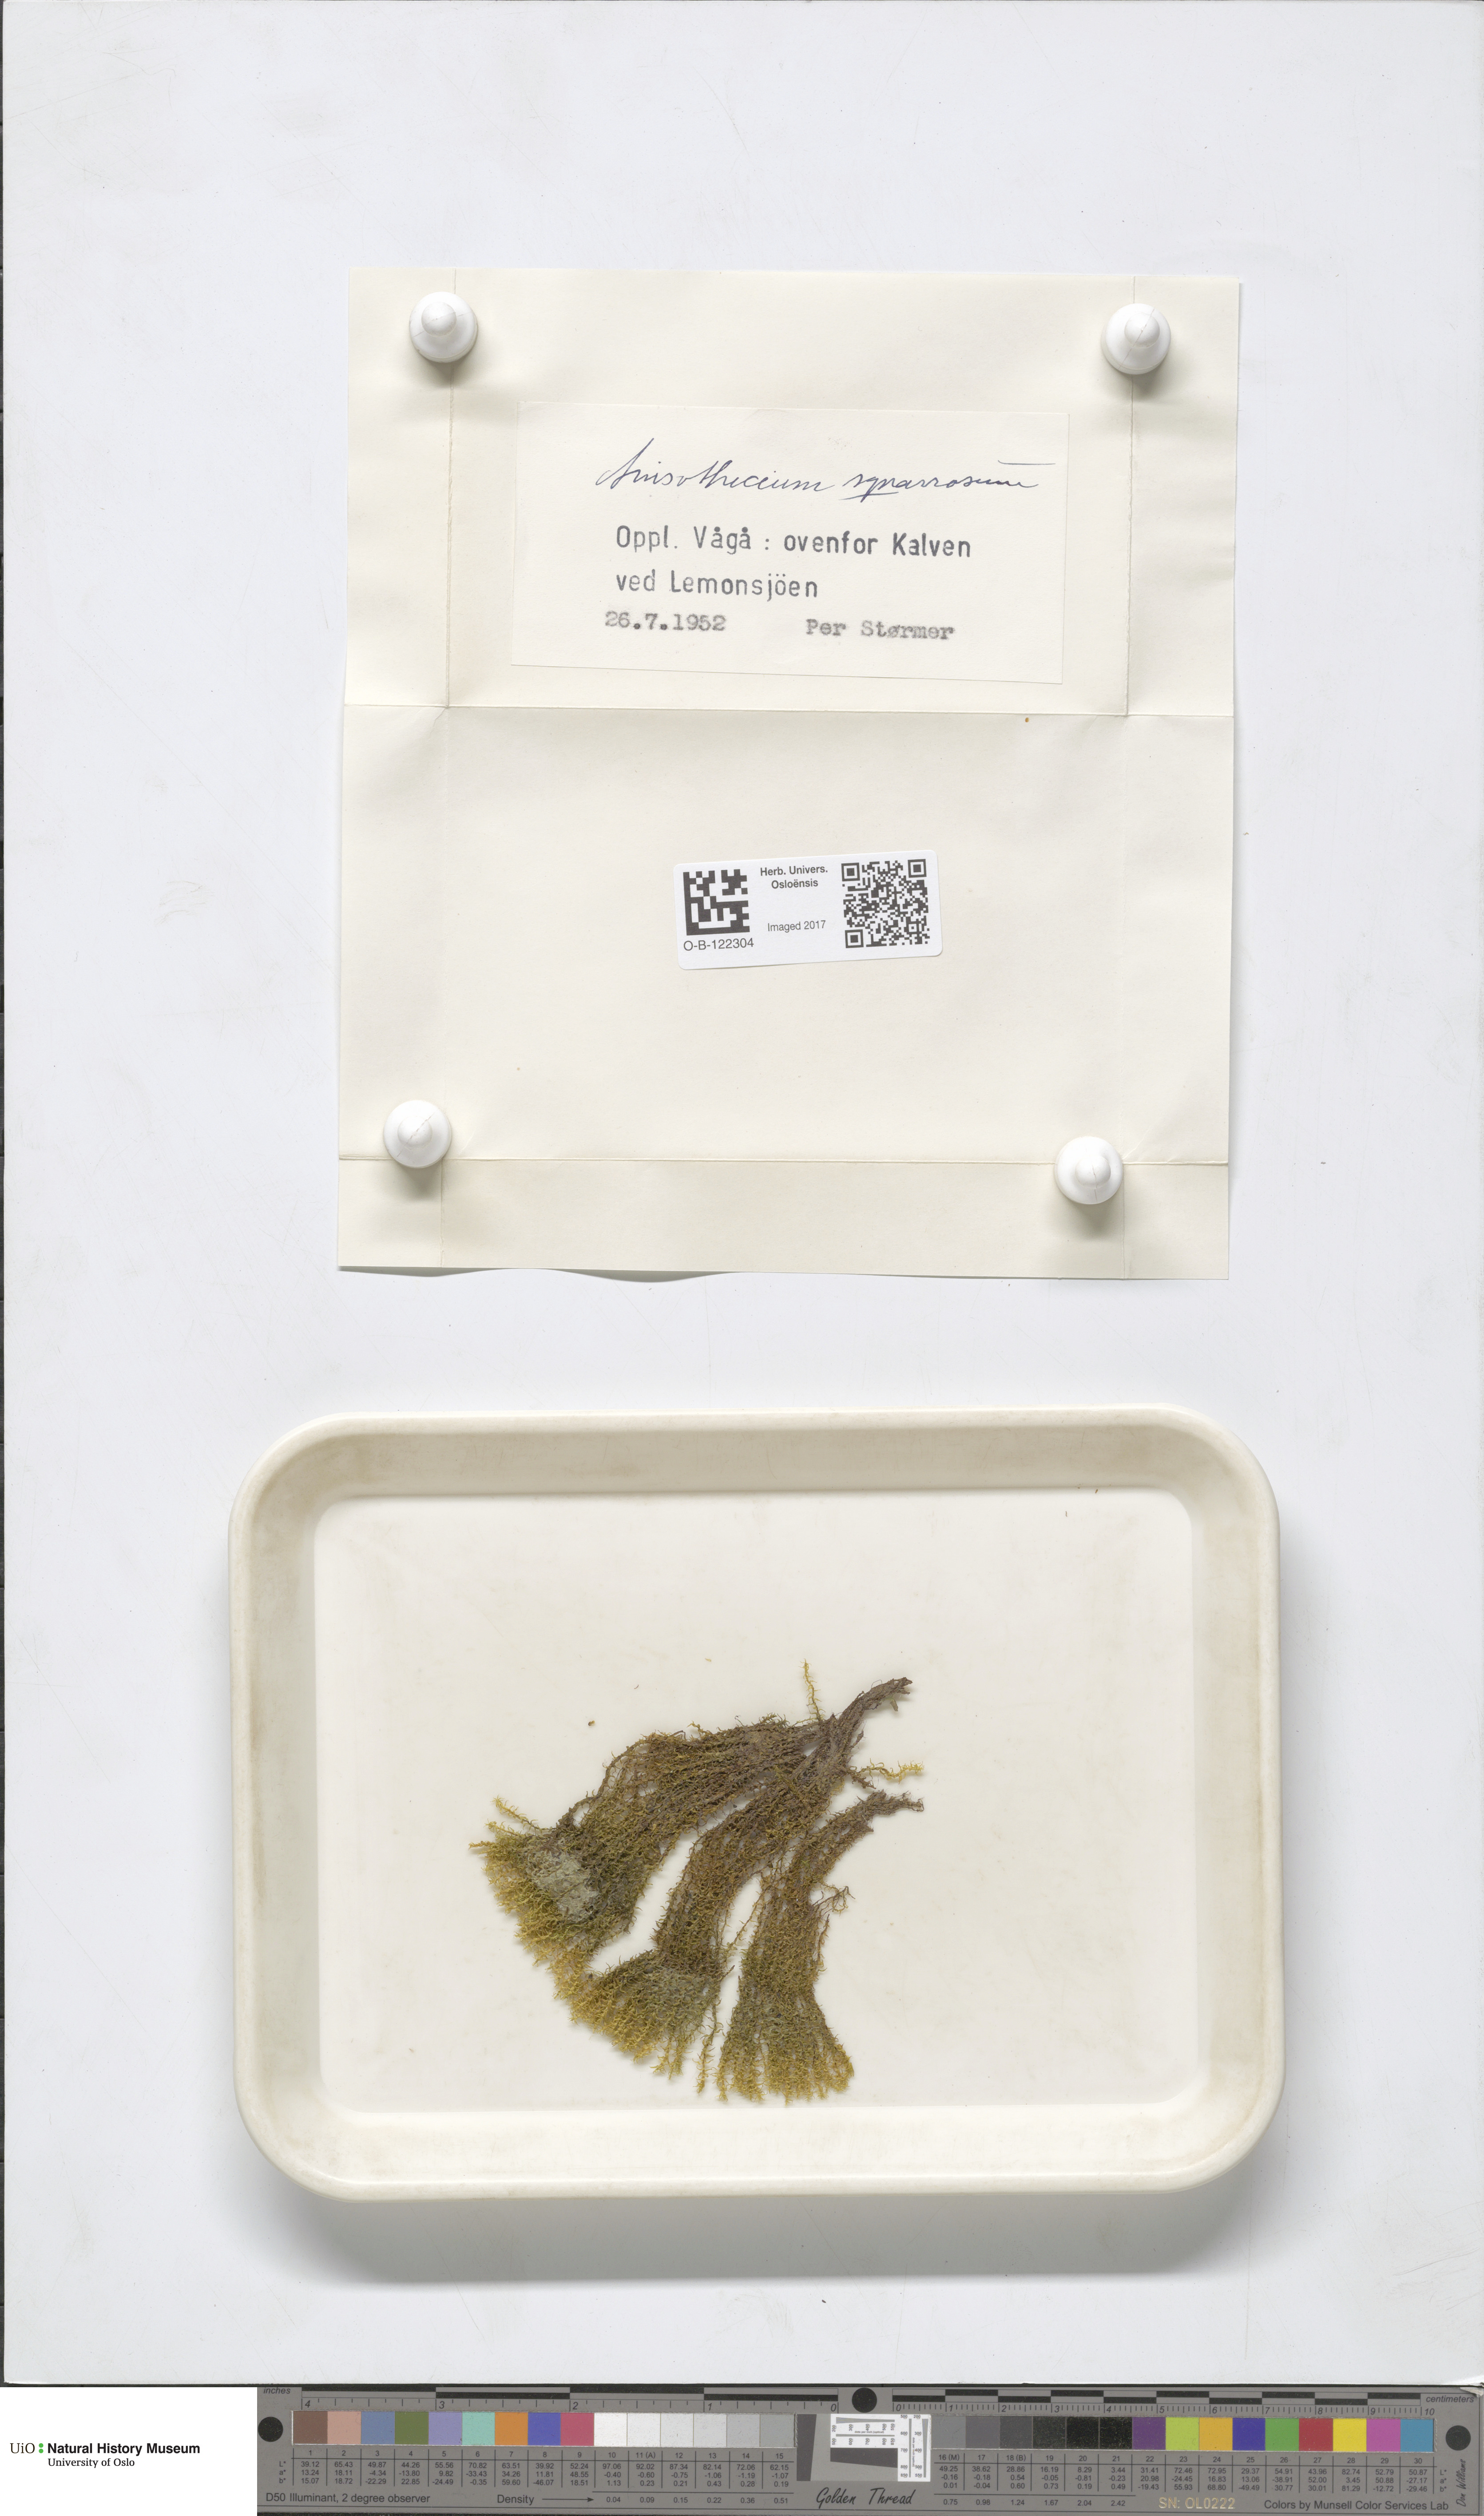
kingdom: Plantae
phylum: Bryophyta
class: Bryopsida
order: Dicranales
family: Aongstroemiaceae
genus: Diobelonella
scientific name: Diobelonella palustris
